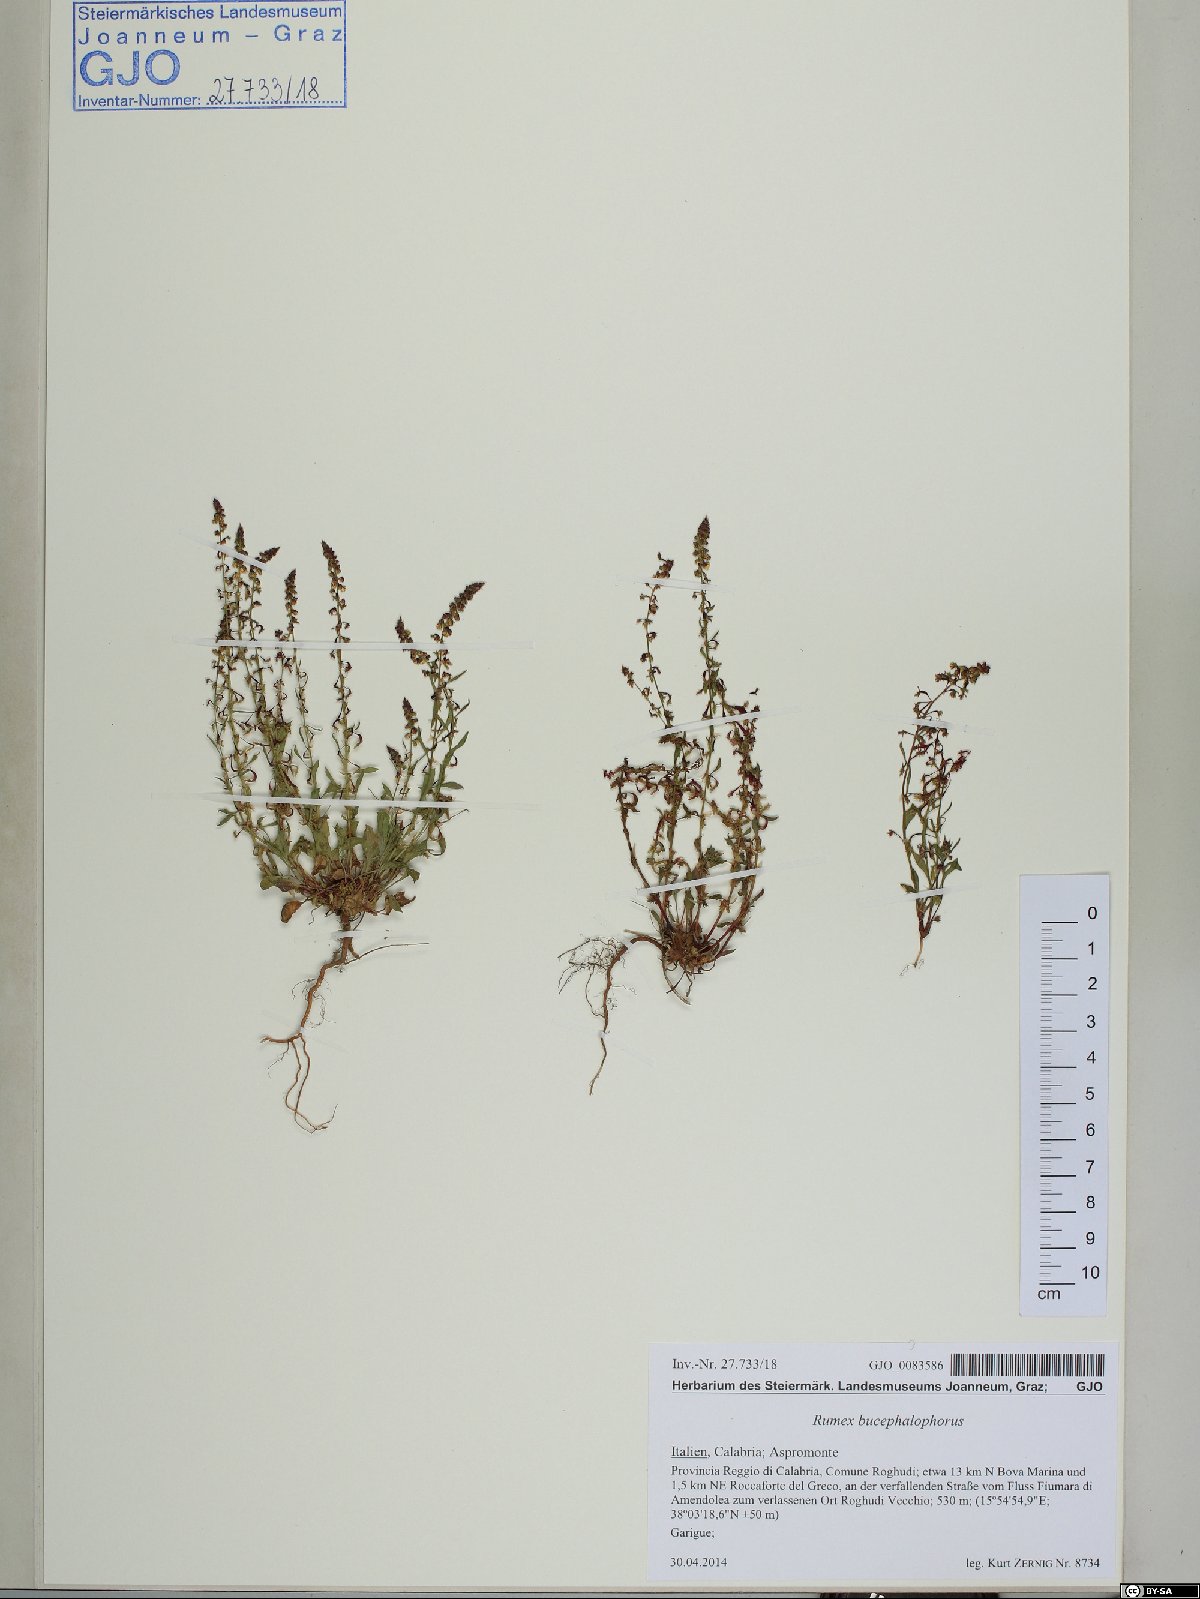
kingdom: Plantae
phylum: Tracheophyta
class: Magnoliopsida
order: Caryophyllales
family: Polygonaceae
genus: Rumex
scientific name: Rumex bucephalophorus
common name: Red dock
